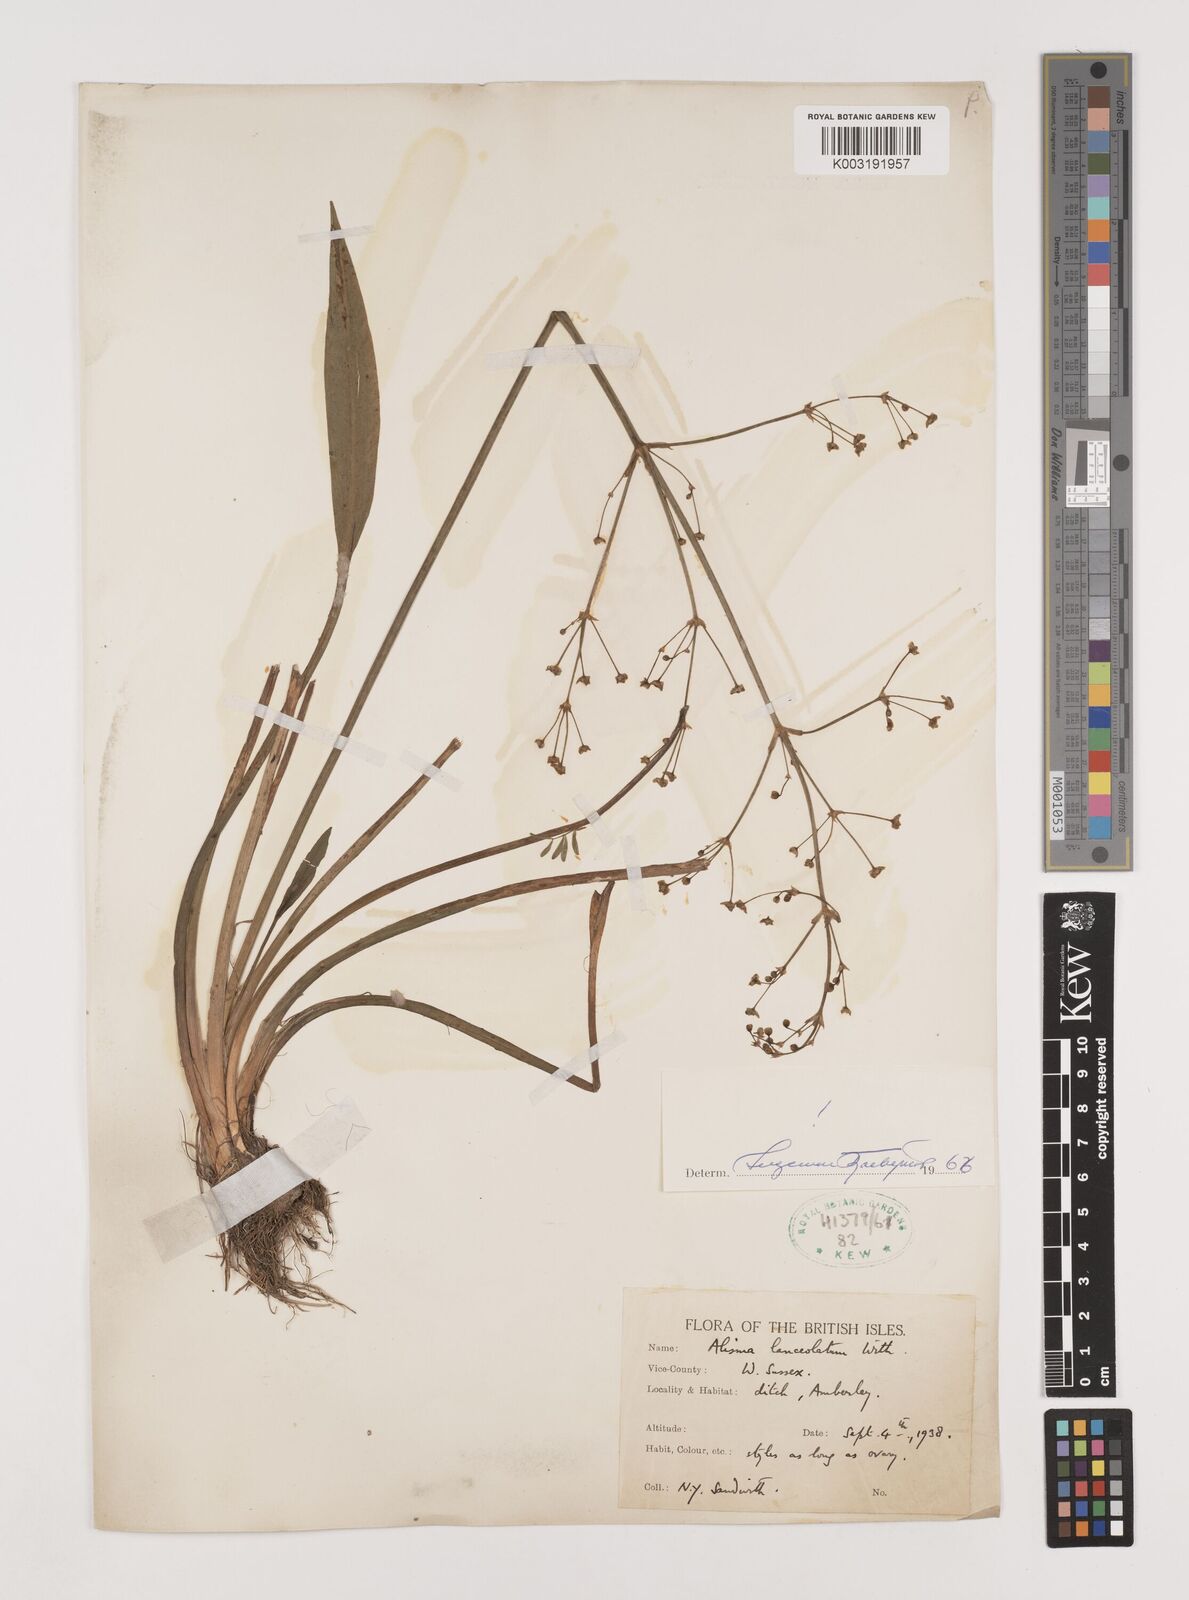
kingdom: Plantae
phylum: Tracheophyta
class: Liliopsida
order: Alismatales
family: Alismataceae
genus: Alisma
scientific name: Alisma lanceolatum
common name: Narrow-leaved water-plantain
